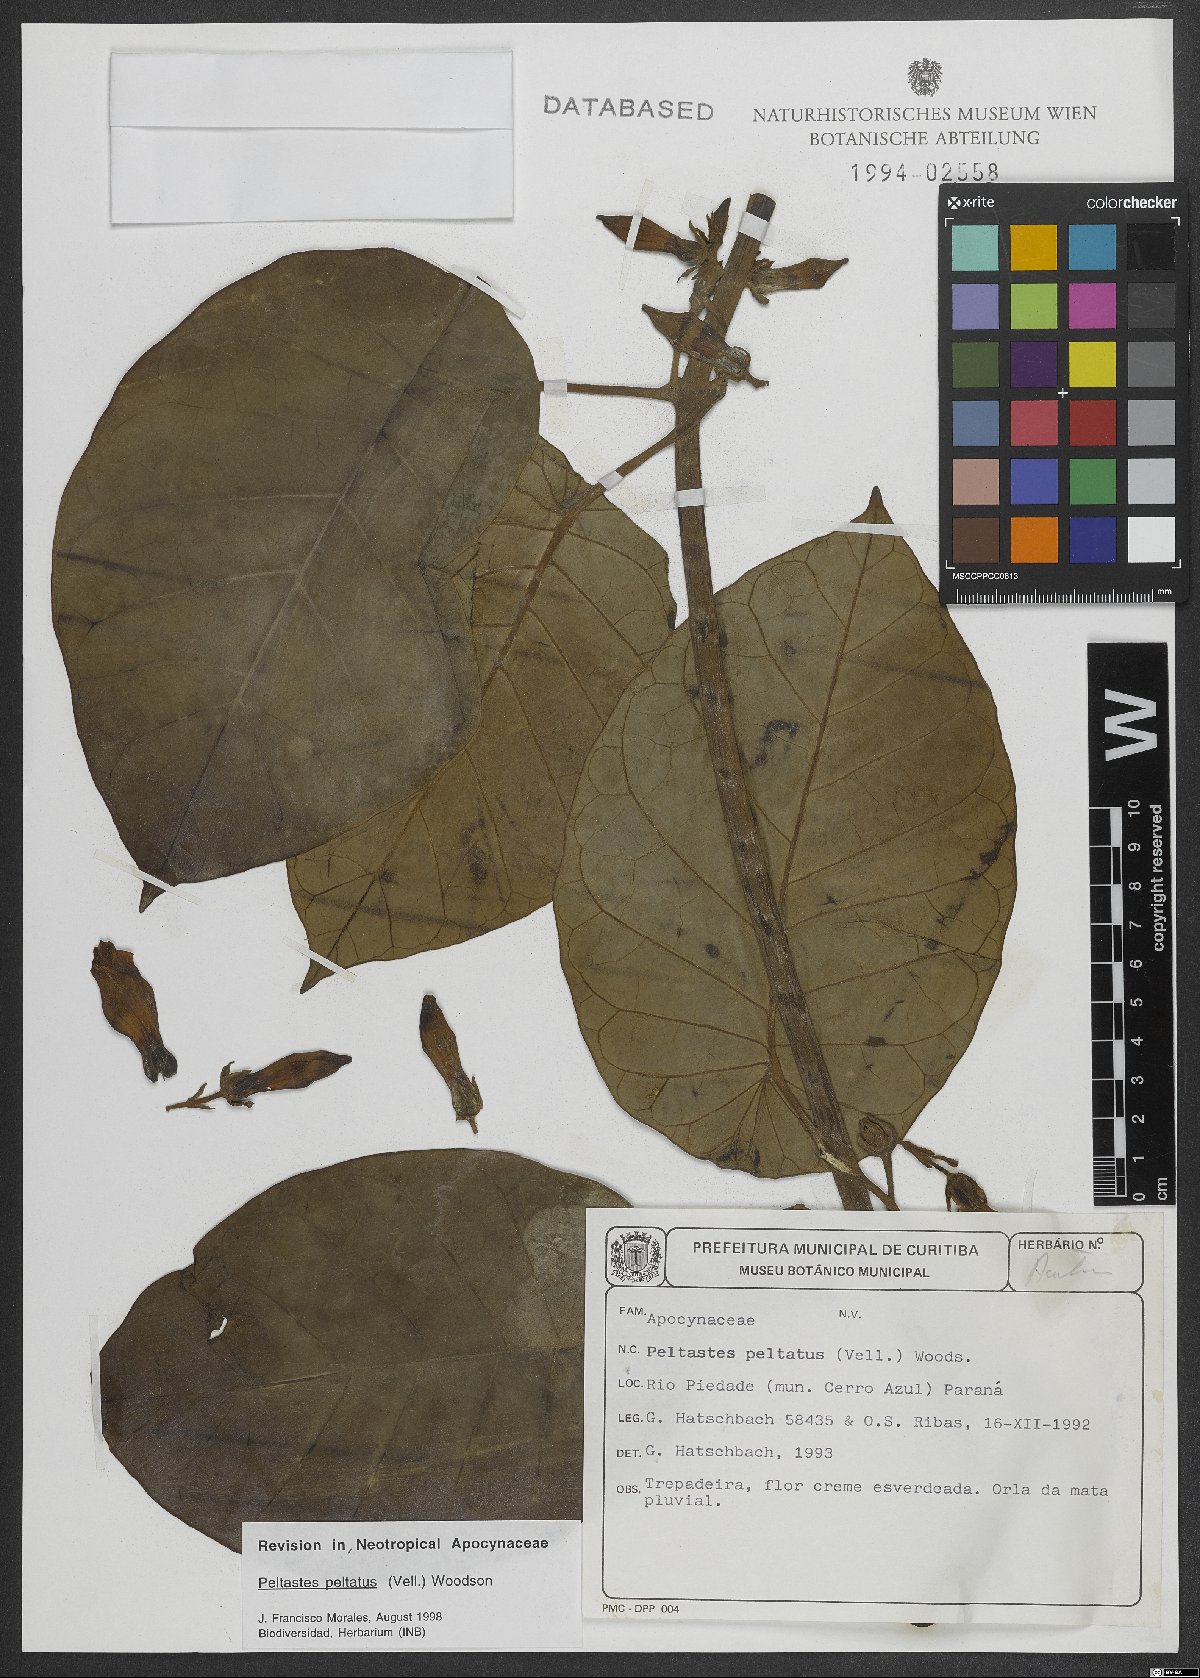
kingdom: Plantae
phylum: Tracheophyta
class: Magnoliopsida
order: Gentianales
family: Apocynaceae
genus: Macropharynx
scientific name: Macropharynx peltata
